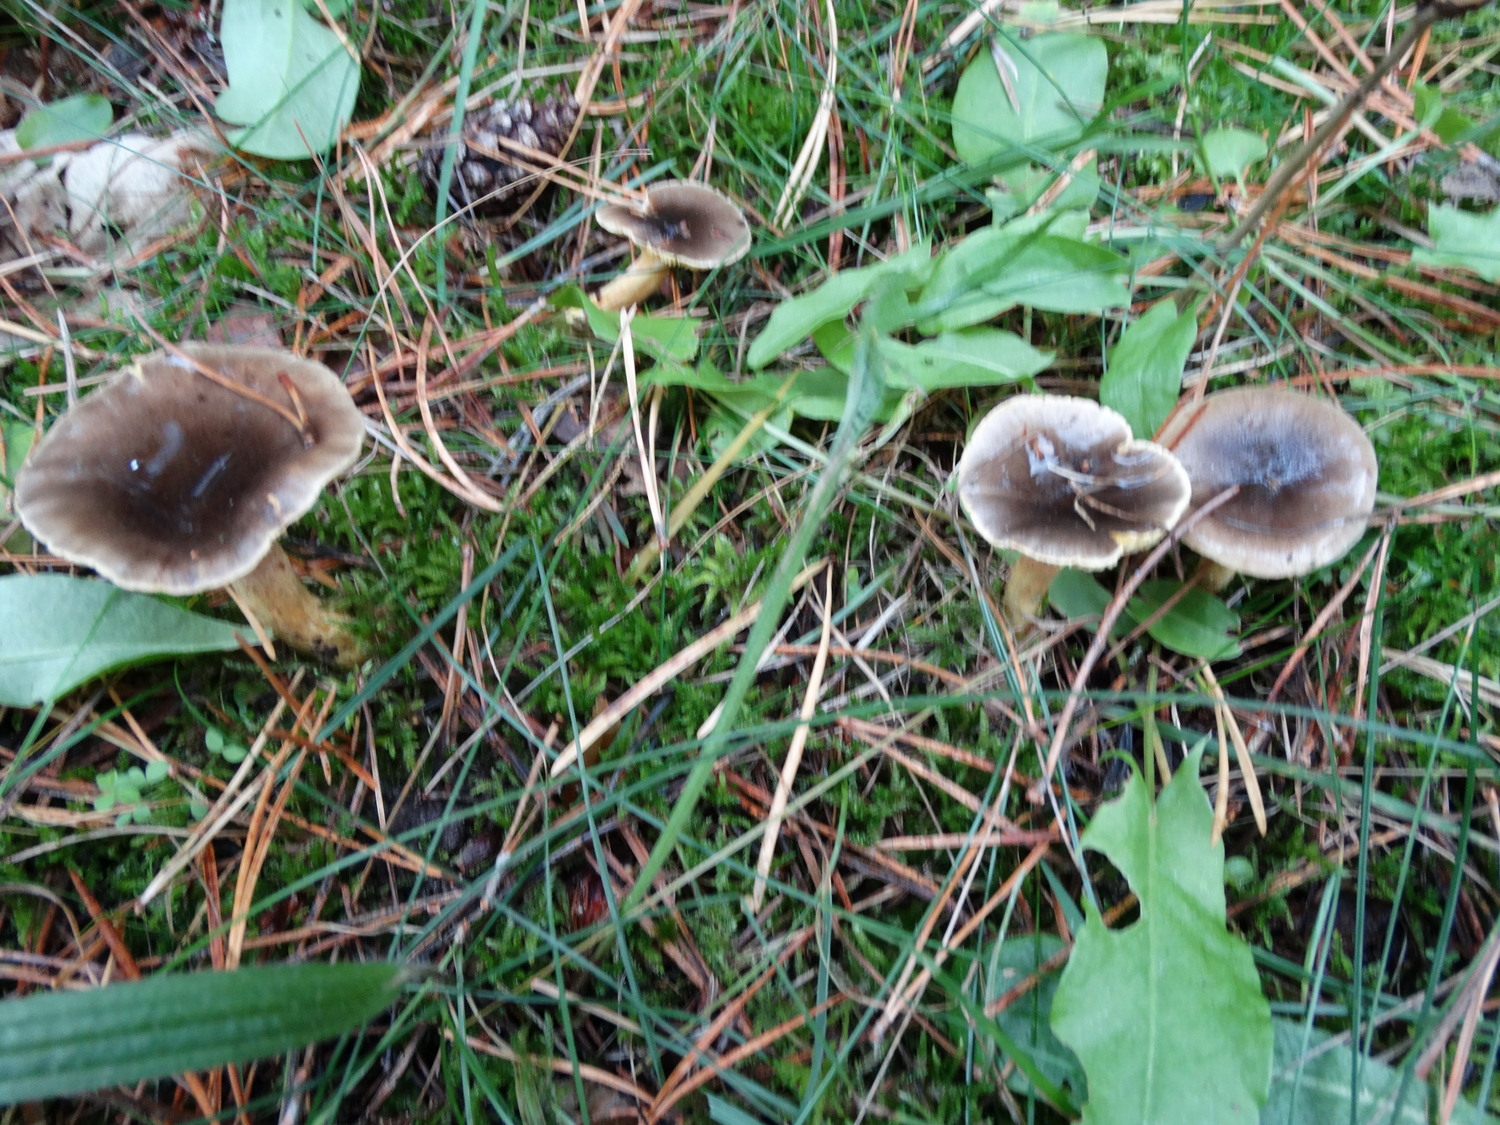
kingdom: Fungi
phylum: Basidiomycota
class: Agaricomycetes
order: Agaricales
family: Hygrophoraceae
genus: Hygrophorus
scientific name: Hygrophorus hypothejus
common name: frost-sneglehat
